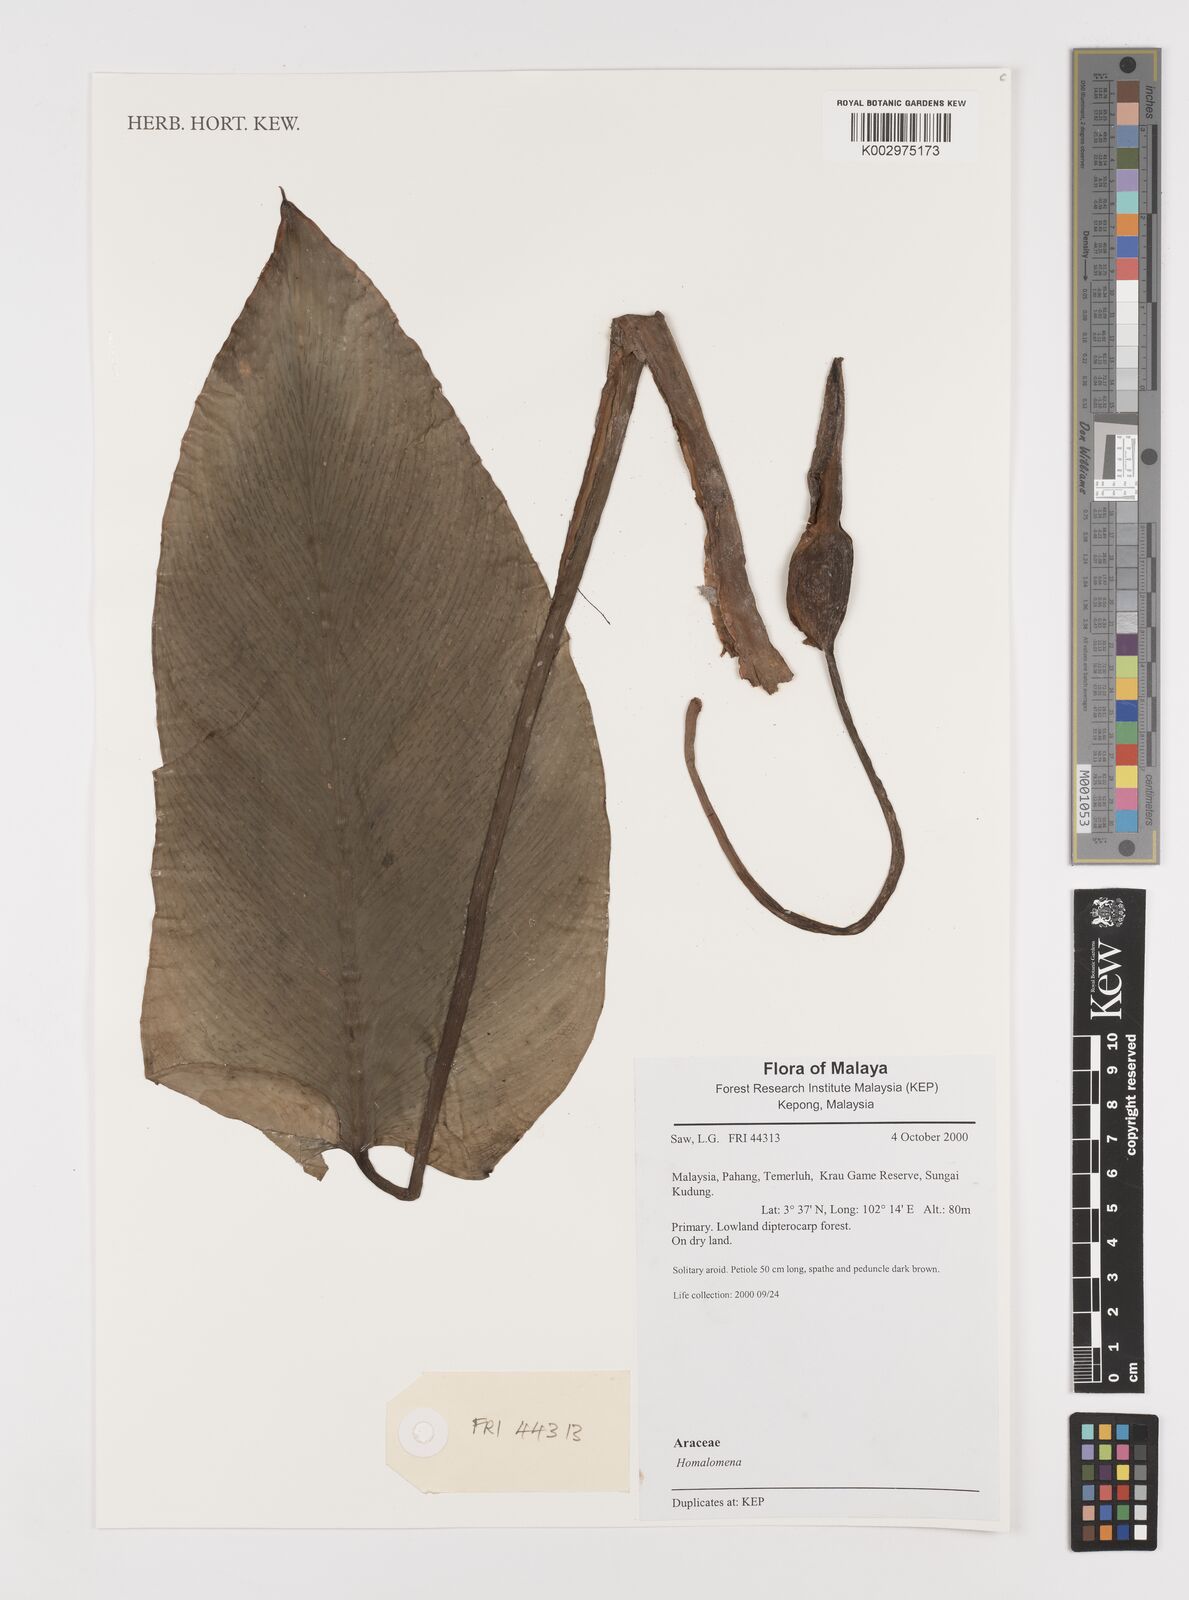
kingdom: Plantae
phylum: Tracheophyta
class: Liliopsida
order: Alismatales
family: Araceae
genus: Homalomena
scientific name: Homalomena
